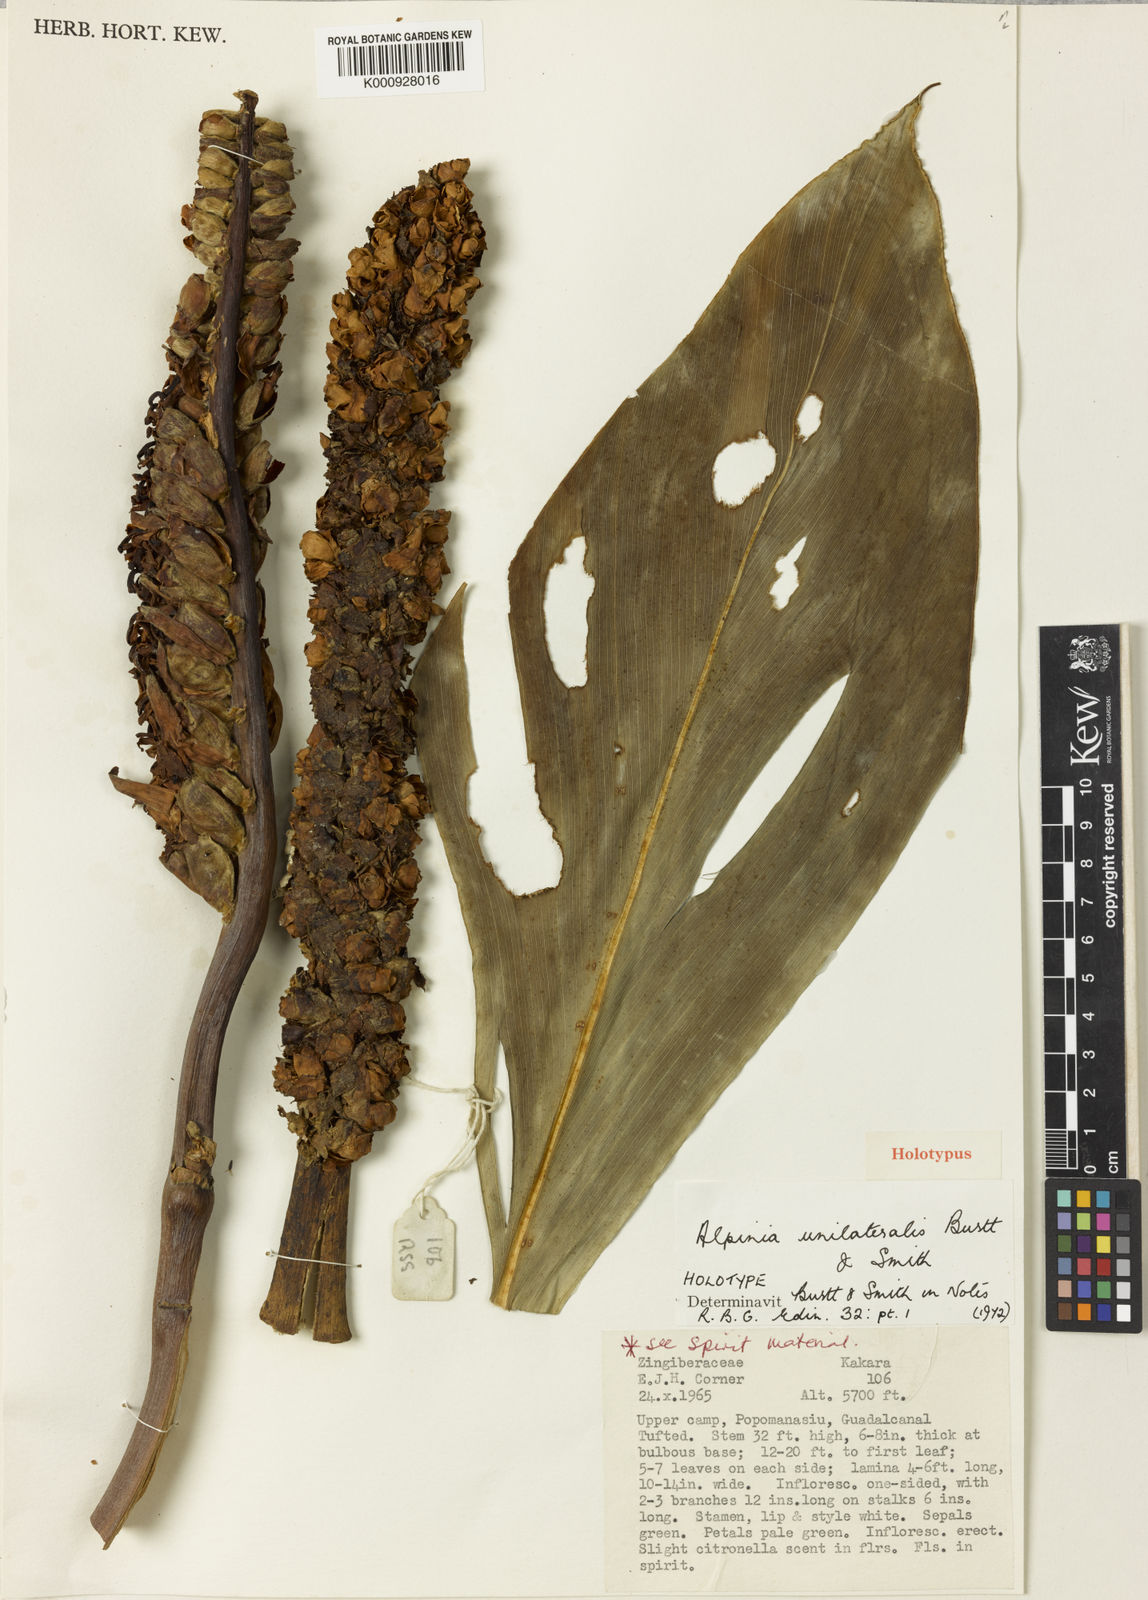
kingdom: Plantae
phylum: Tracheophyta
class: Liliopsida
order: Zingiberales
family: Zingiberaceae
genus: Alpinia
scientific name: Alpinia unilateralis
